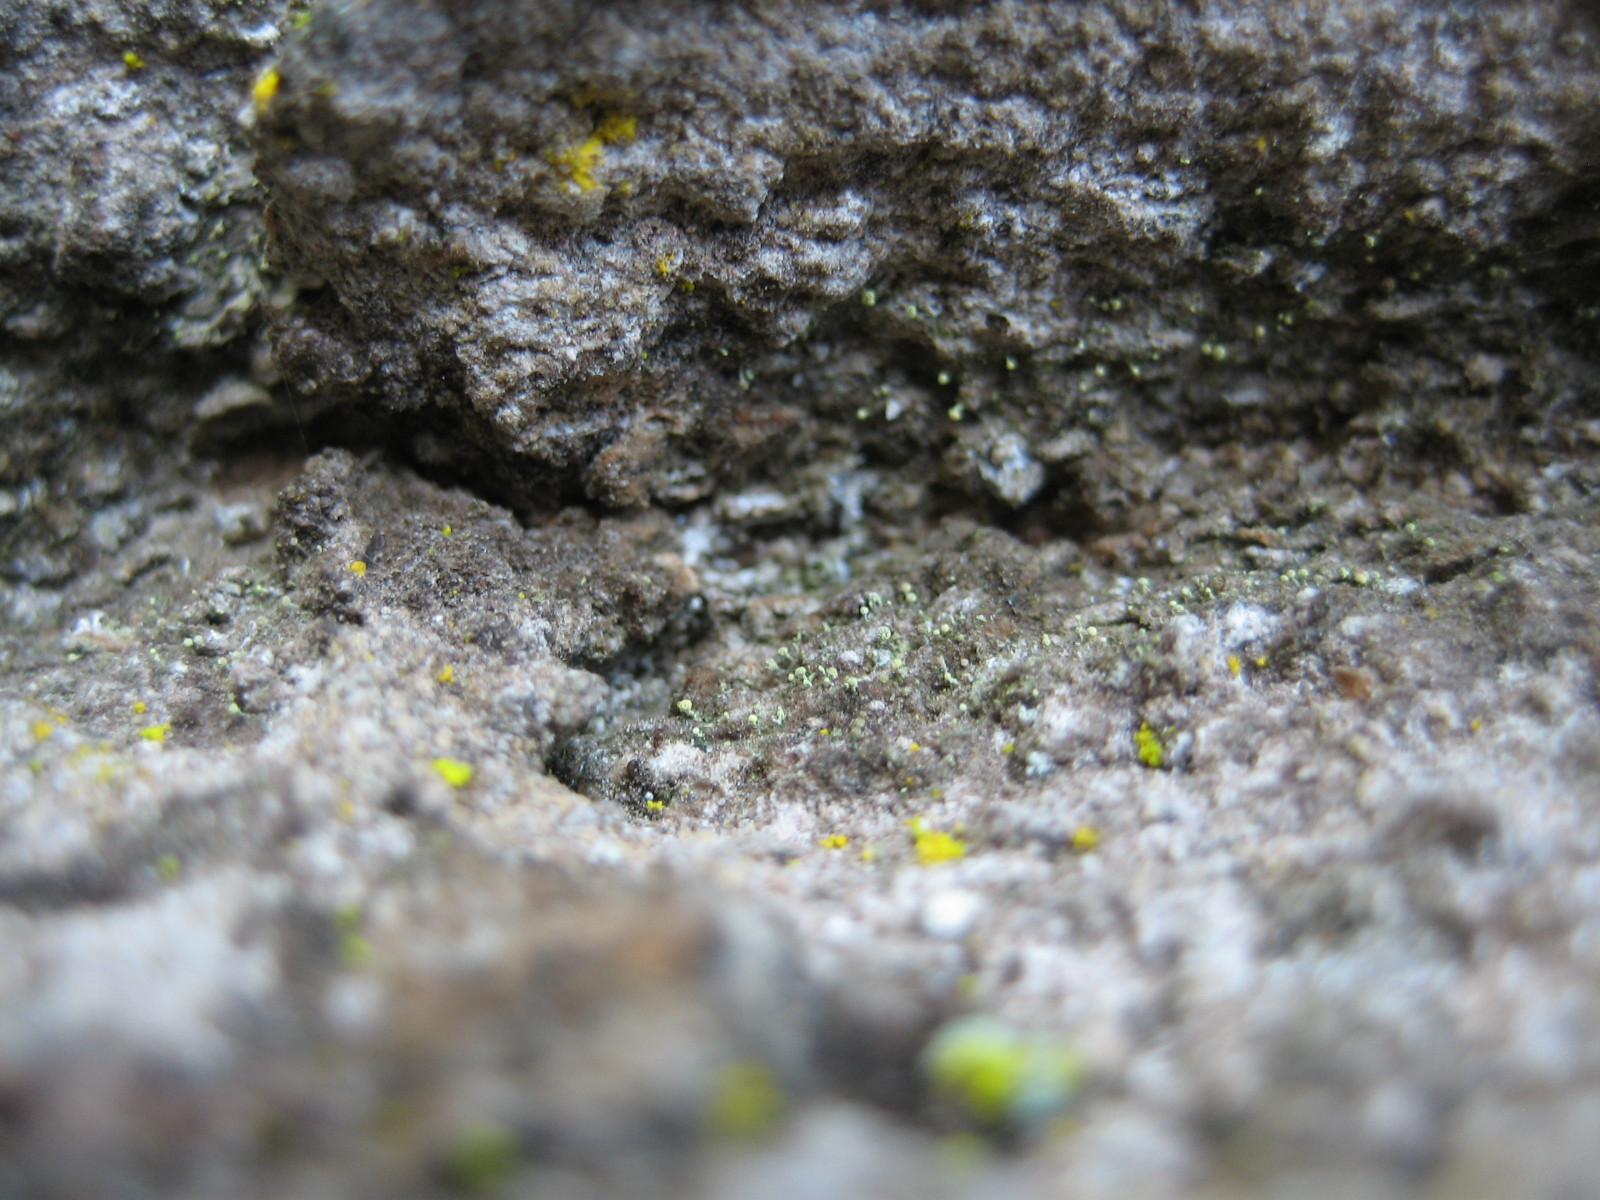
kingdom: Fungi
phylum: Ascomycota
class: Coniocybomycetes
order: Coniocybales
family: Coniocybaceae
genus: Chaenotheca
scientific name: Chaenotheca brachypoda
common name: gulgrøn knappenålslav
